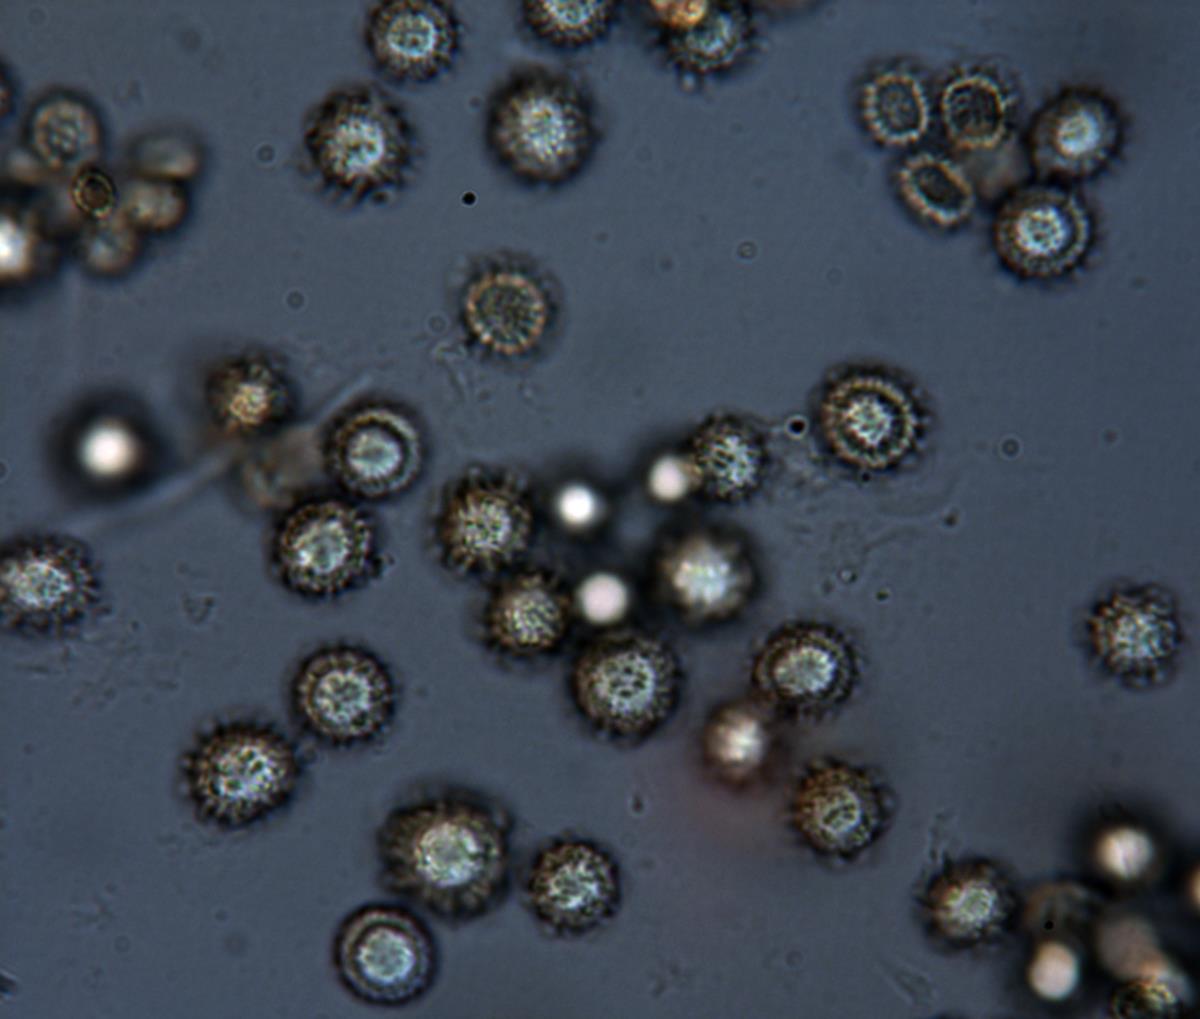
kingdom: Fungi
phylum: Basidiomycota
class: Agaricomycetes
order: Boletales
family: Sclerodermataceae
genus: Pisolithus
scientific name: Pisolithus
